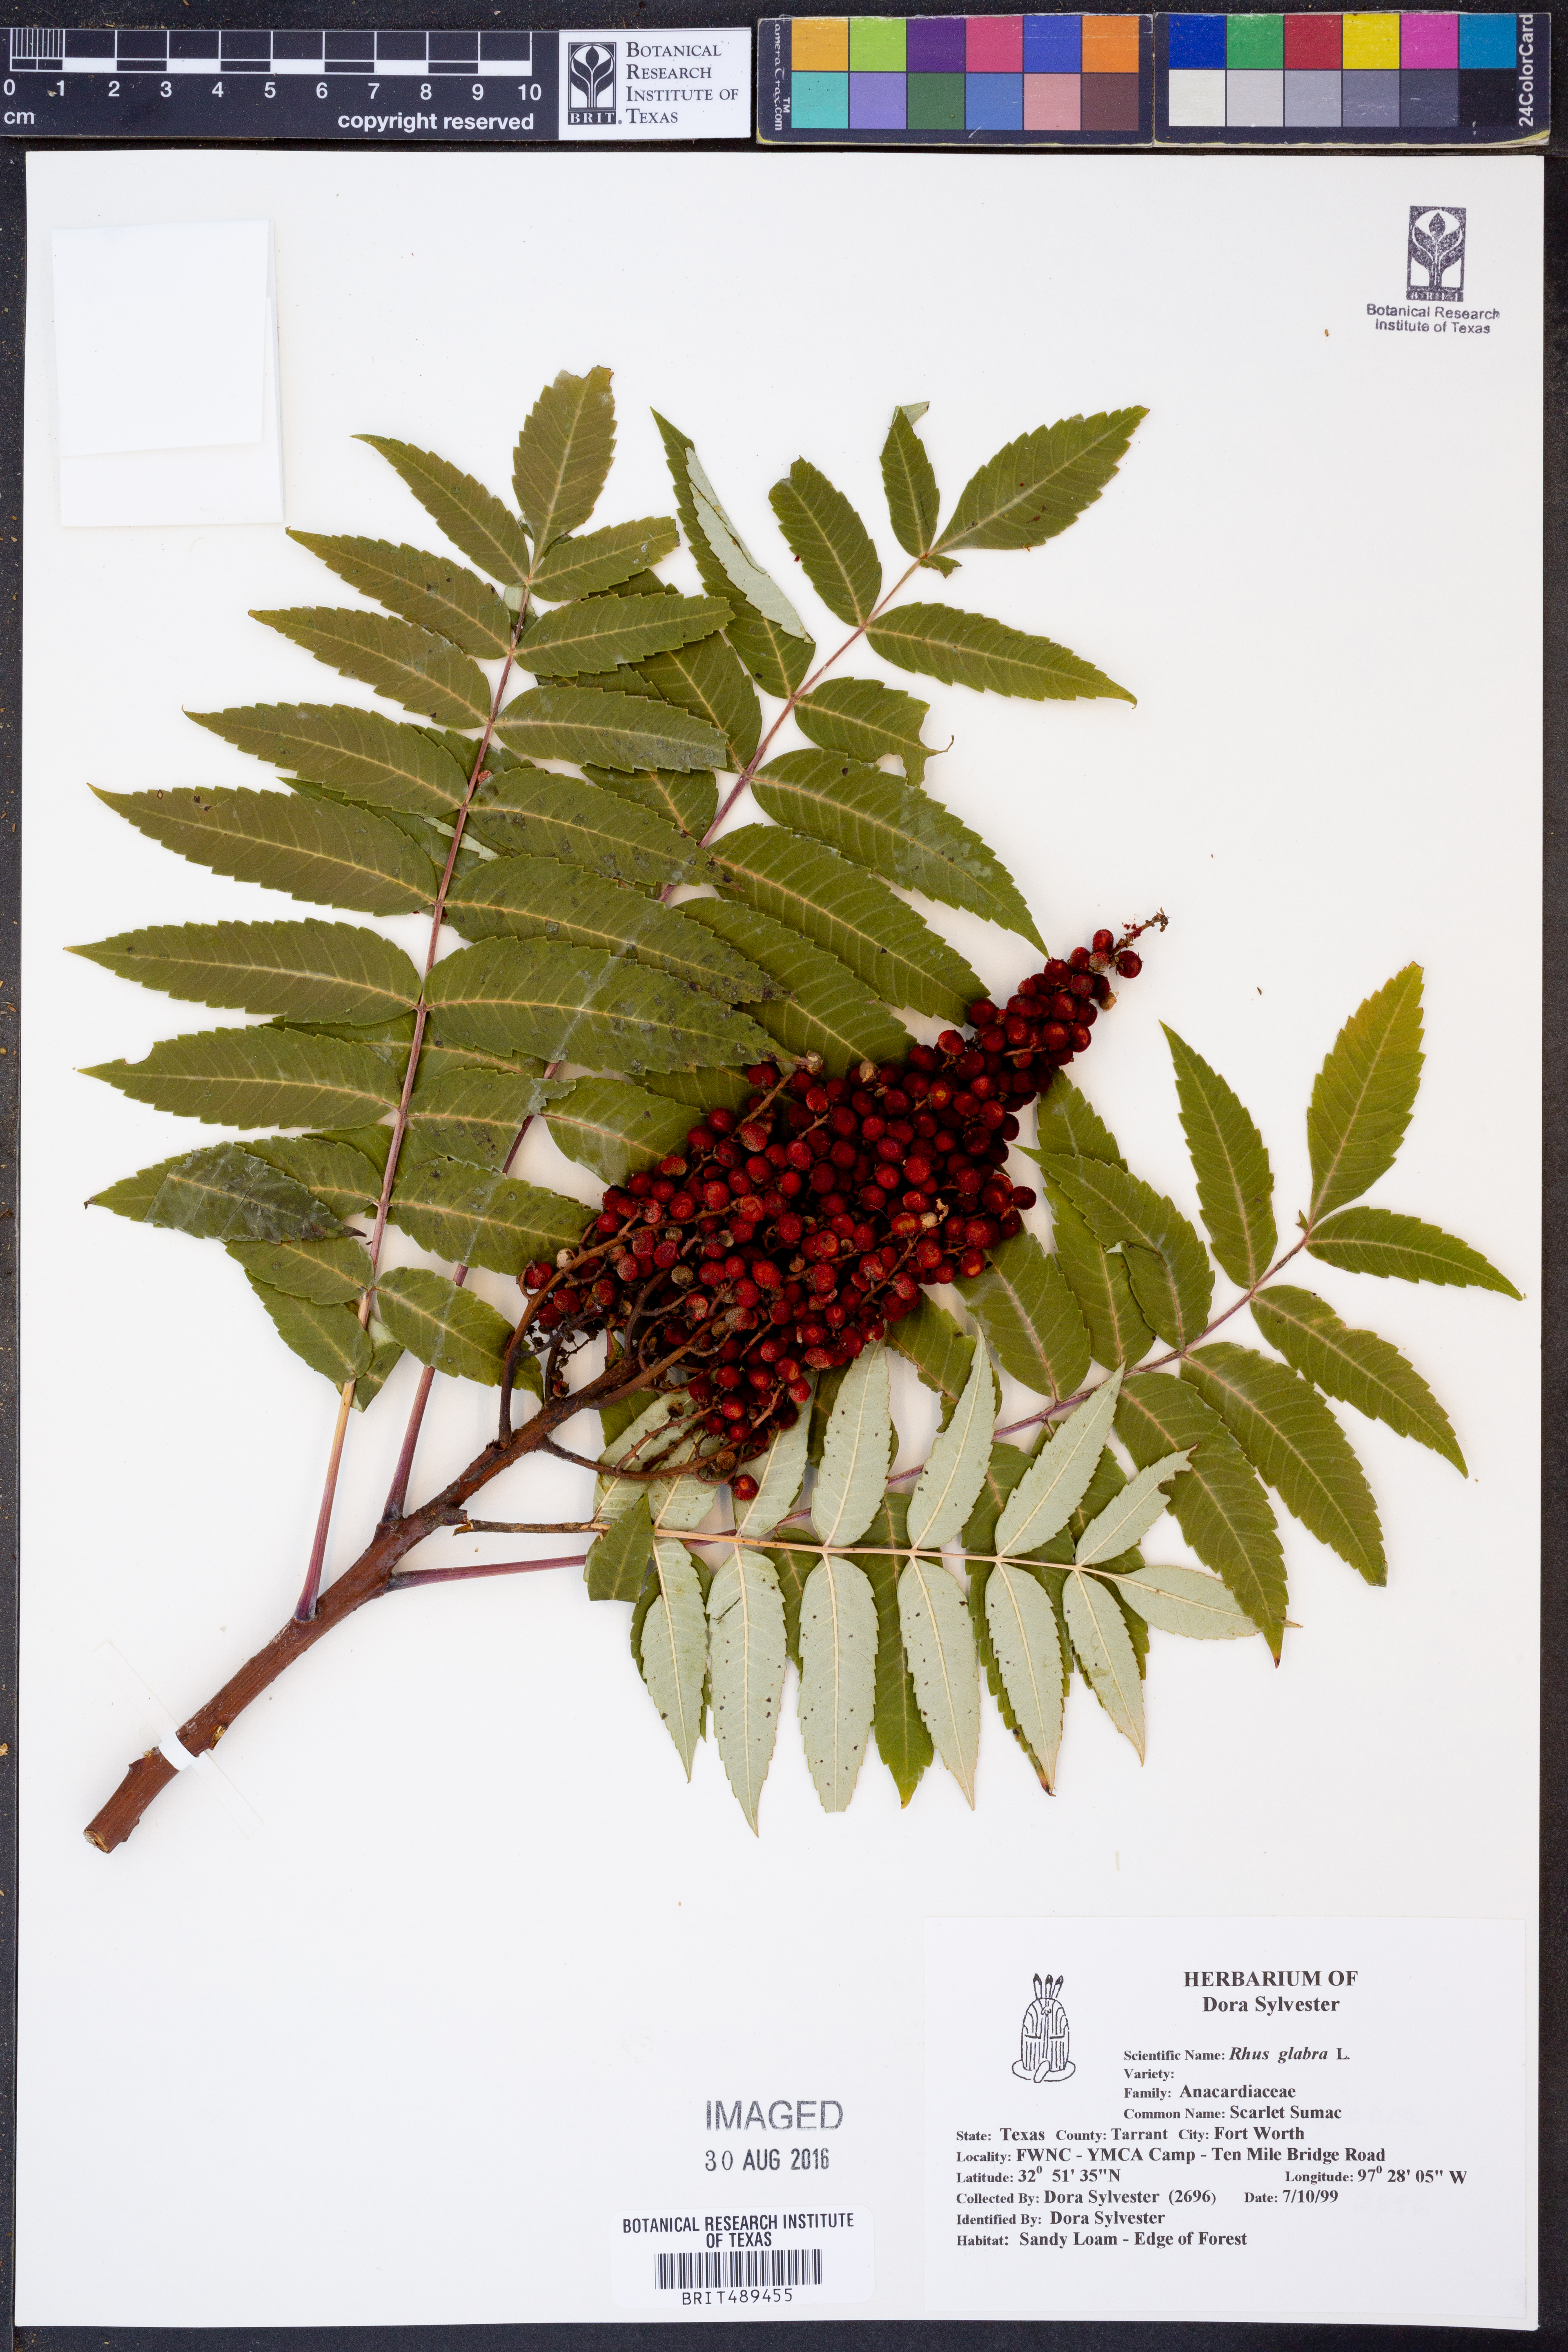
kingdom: Plantae
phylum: Tracheophyta
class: Magnoliopsida
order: Sapindales
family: Anacardiaceae
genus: Rhus
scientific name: Rhus glabra
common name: Scarlet sumac
